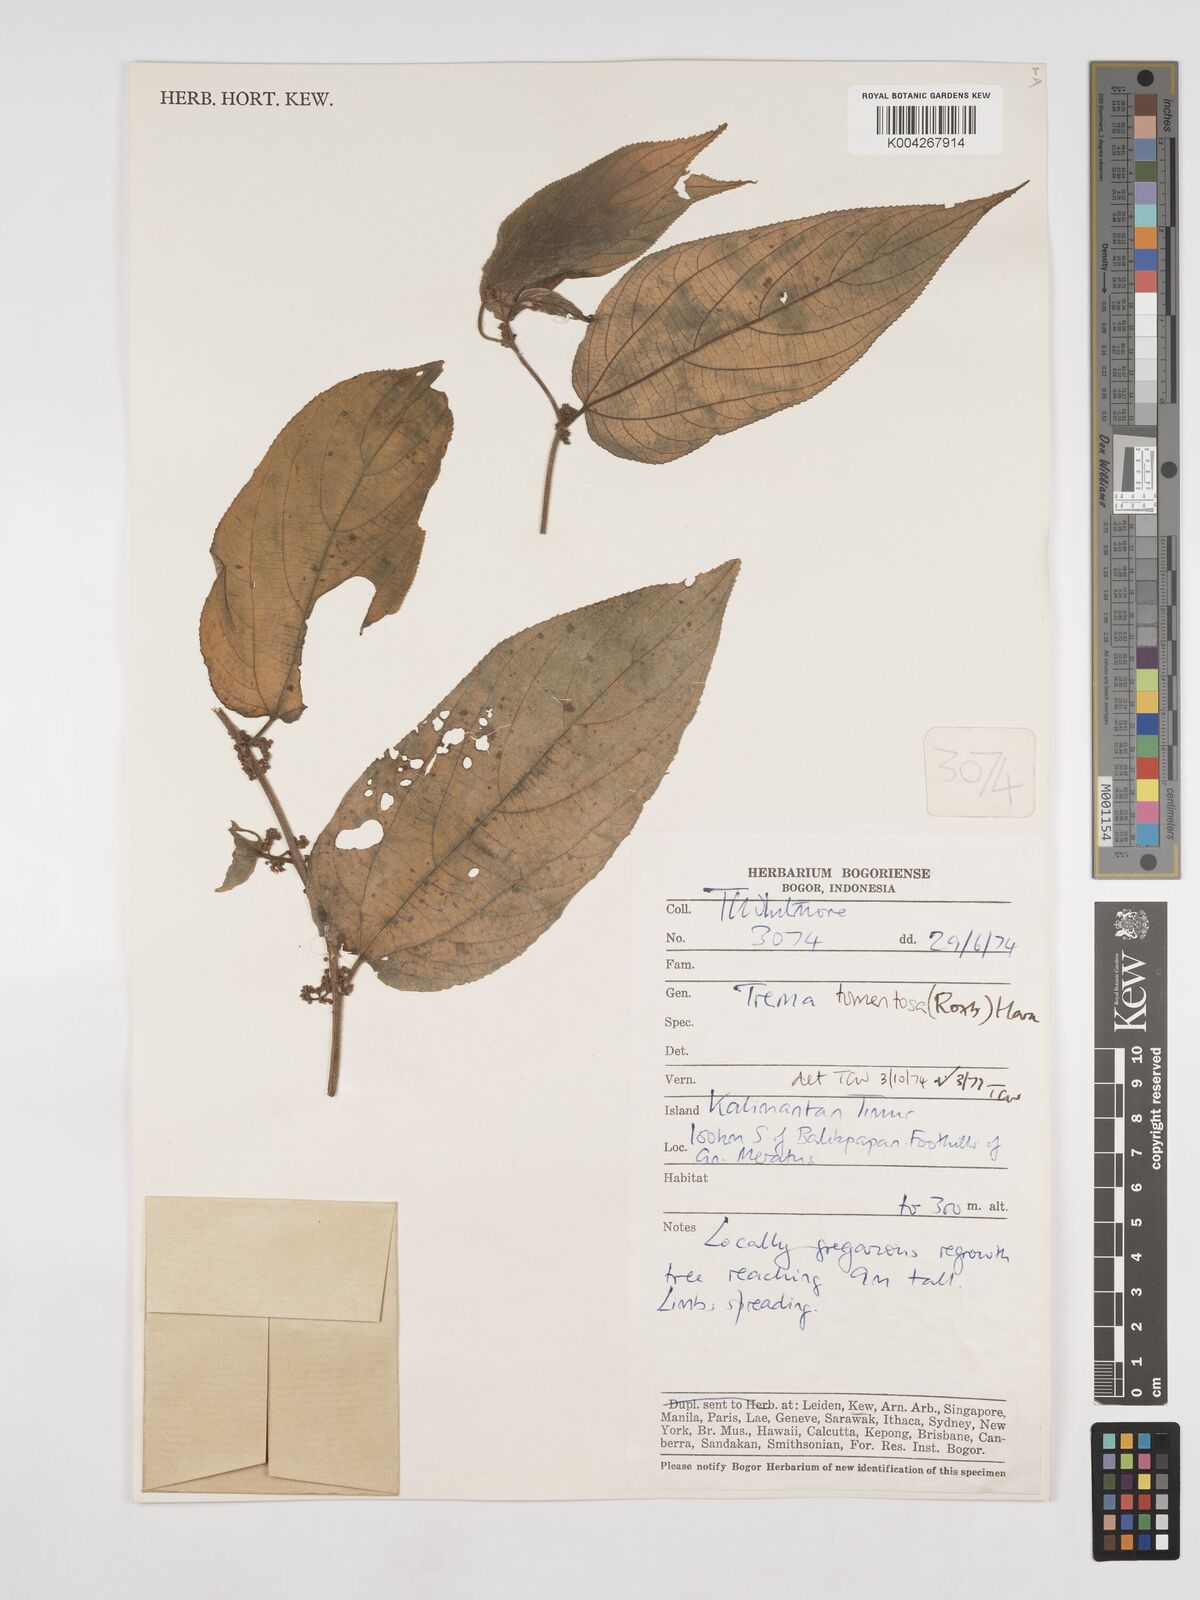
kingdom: Plantae
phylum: Tracheophyta
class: Magnoliopsida
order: Rosales
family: Cannabaceae
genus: Trema
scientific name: Trema tomentosum
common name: Peach-leaf-poisonbush
